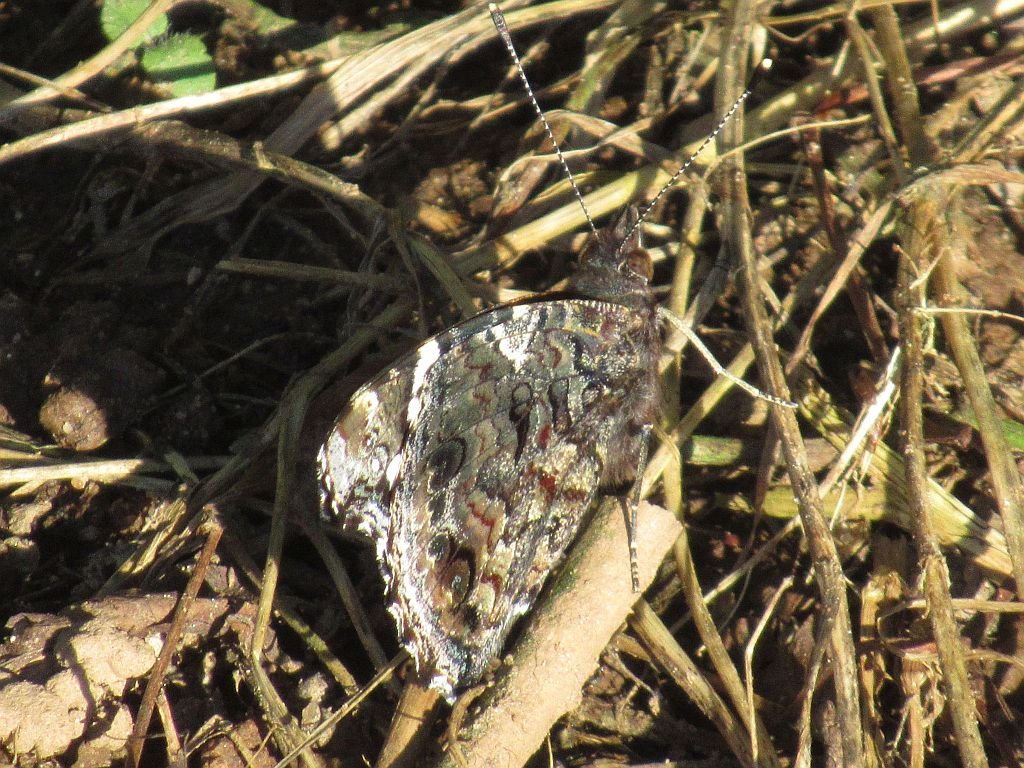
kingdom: Animalia
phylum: Arthropoda
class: Insecta
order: Lepidoptera
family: Nymphalidae
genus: Vanessa
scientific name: Vanessa atalanta
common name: Red Admiral
